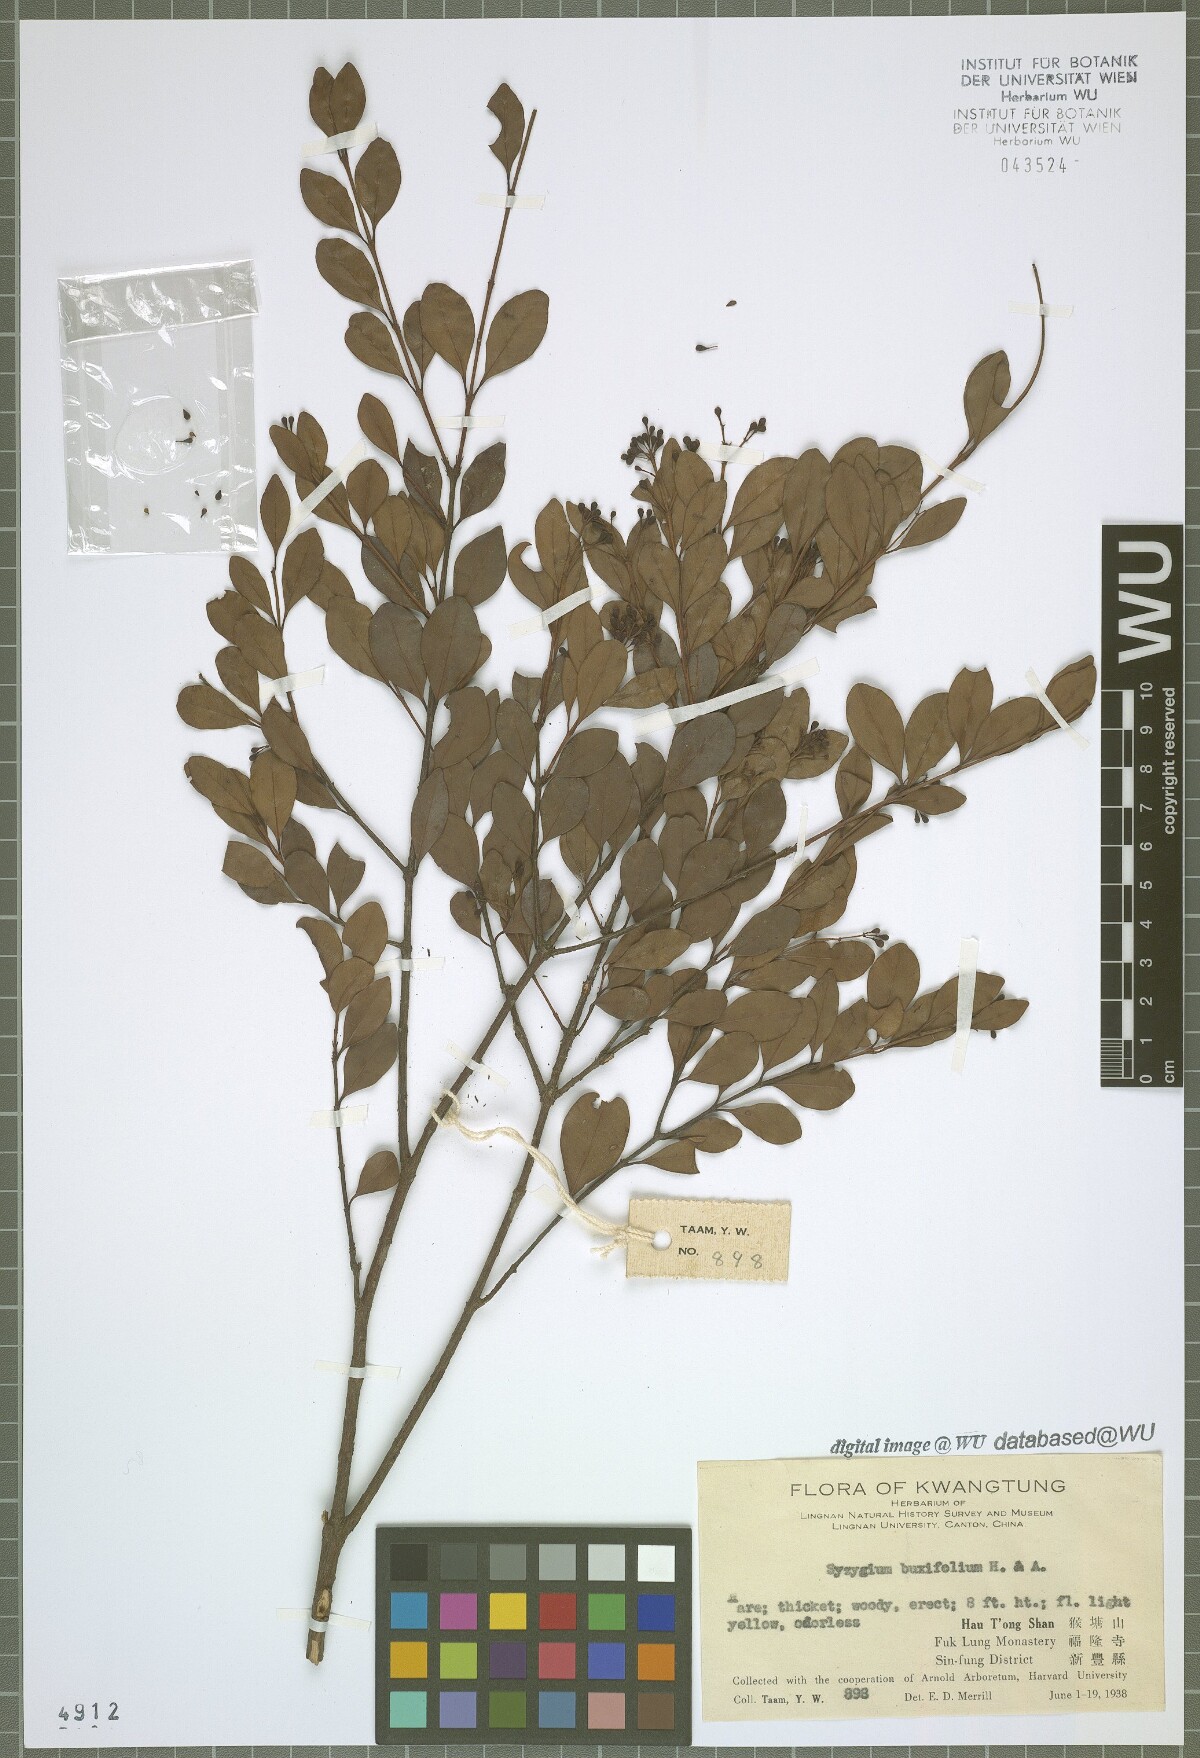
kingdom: Plantae
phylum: Tracheophyta
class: Magnoliopsida
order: Myrtales
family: Myrtaceae
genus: Syzygium
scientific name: Syzygium buxifolium
